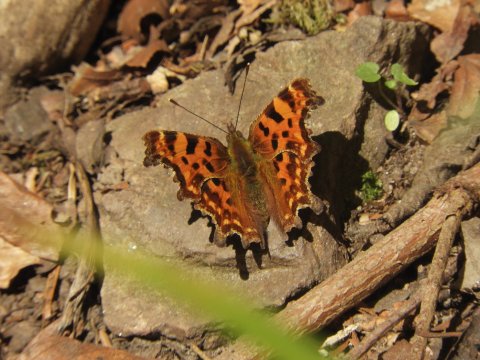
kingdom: Animalia
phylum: Arthropoda
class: Insecta
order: Lepidoptera
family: Nymphalidae
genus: Polygonia
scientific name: Polygonia c-album
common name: Comma
